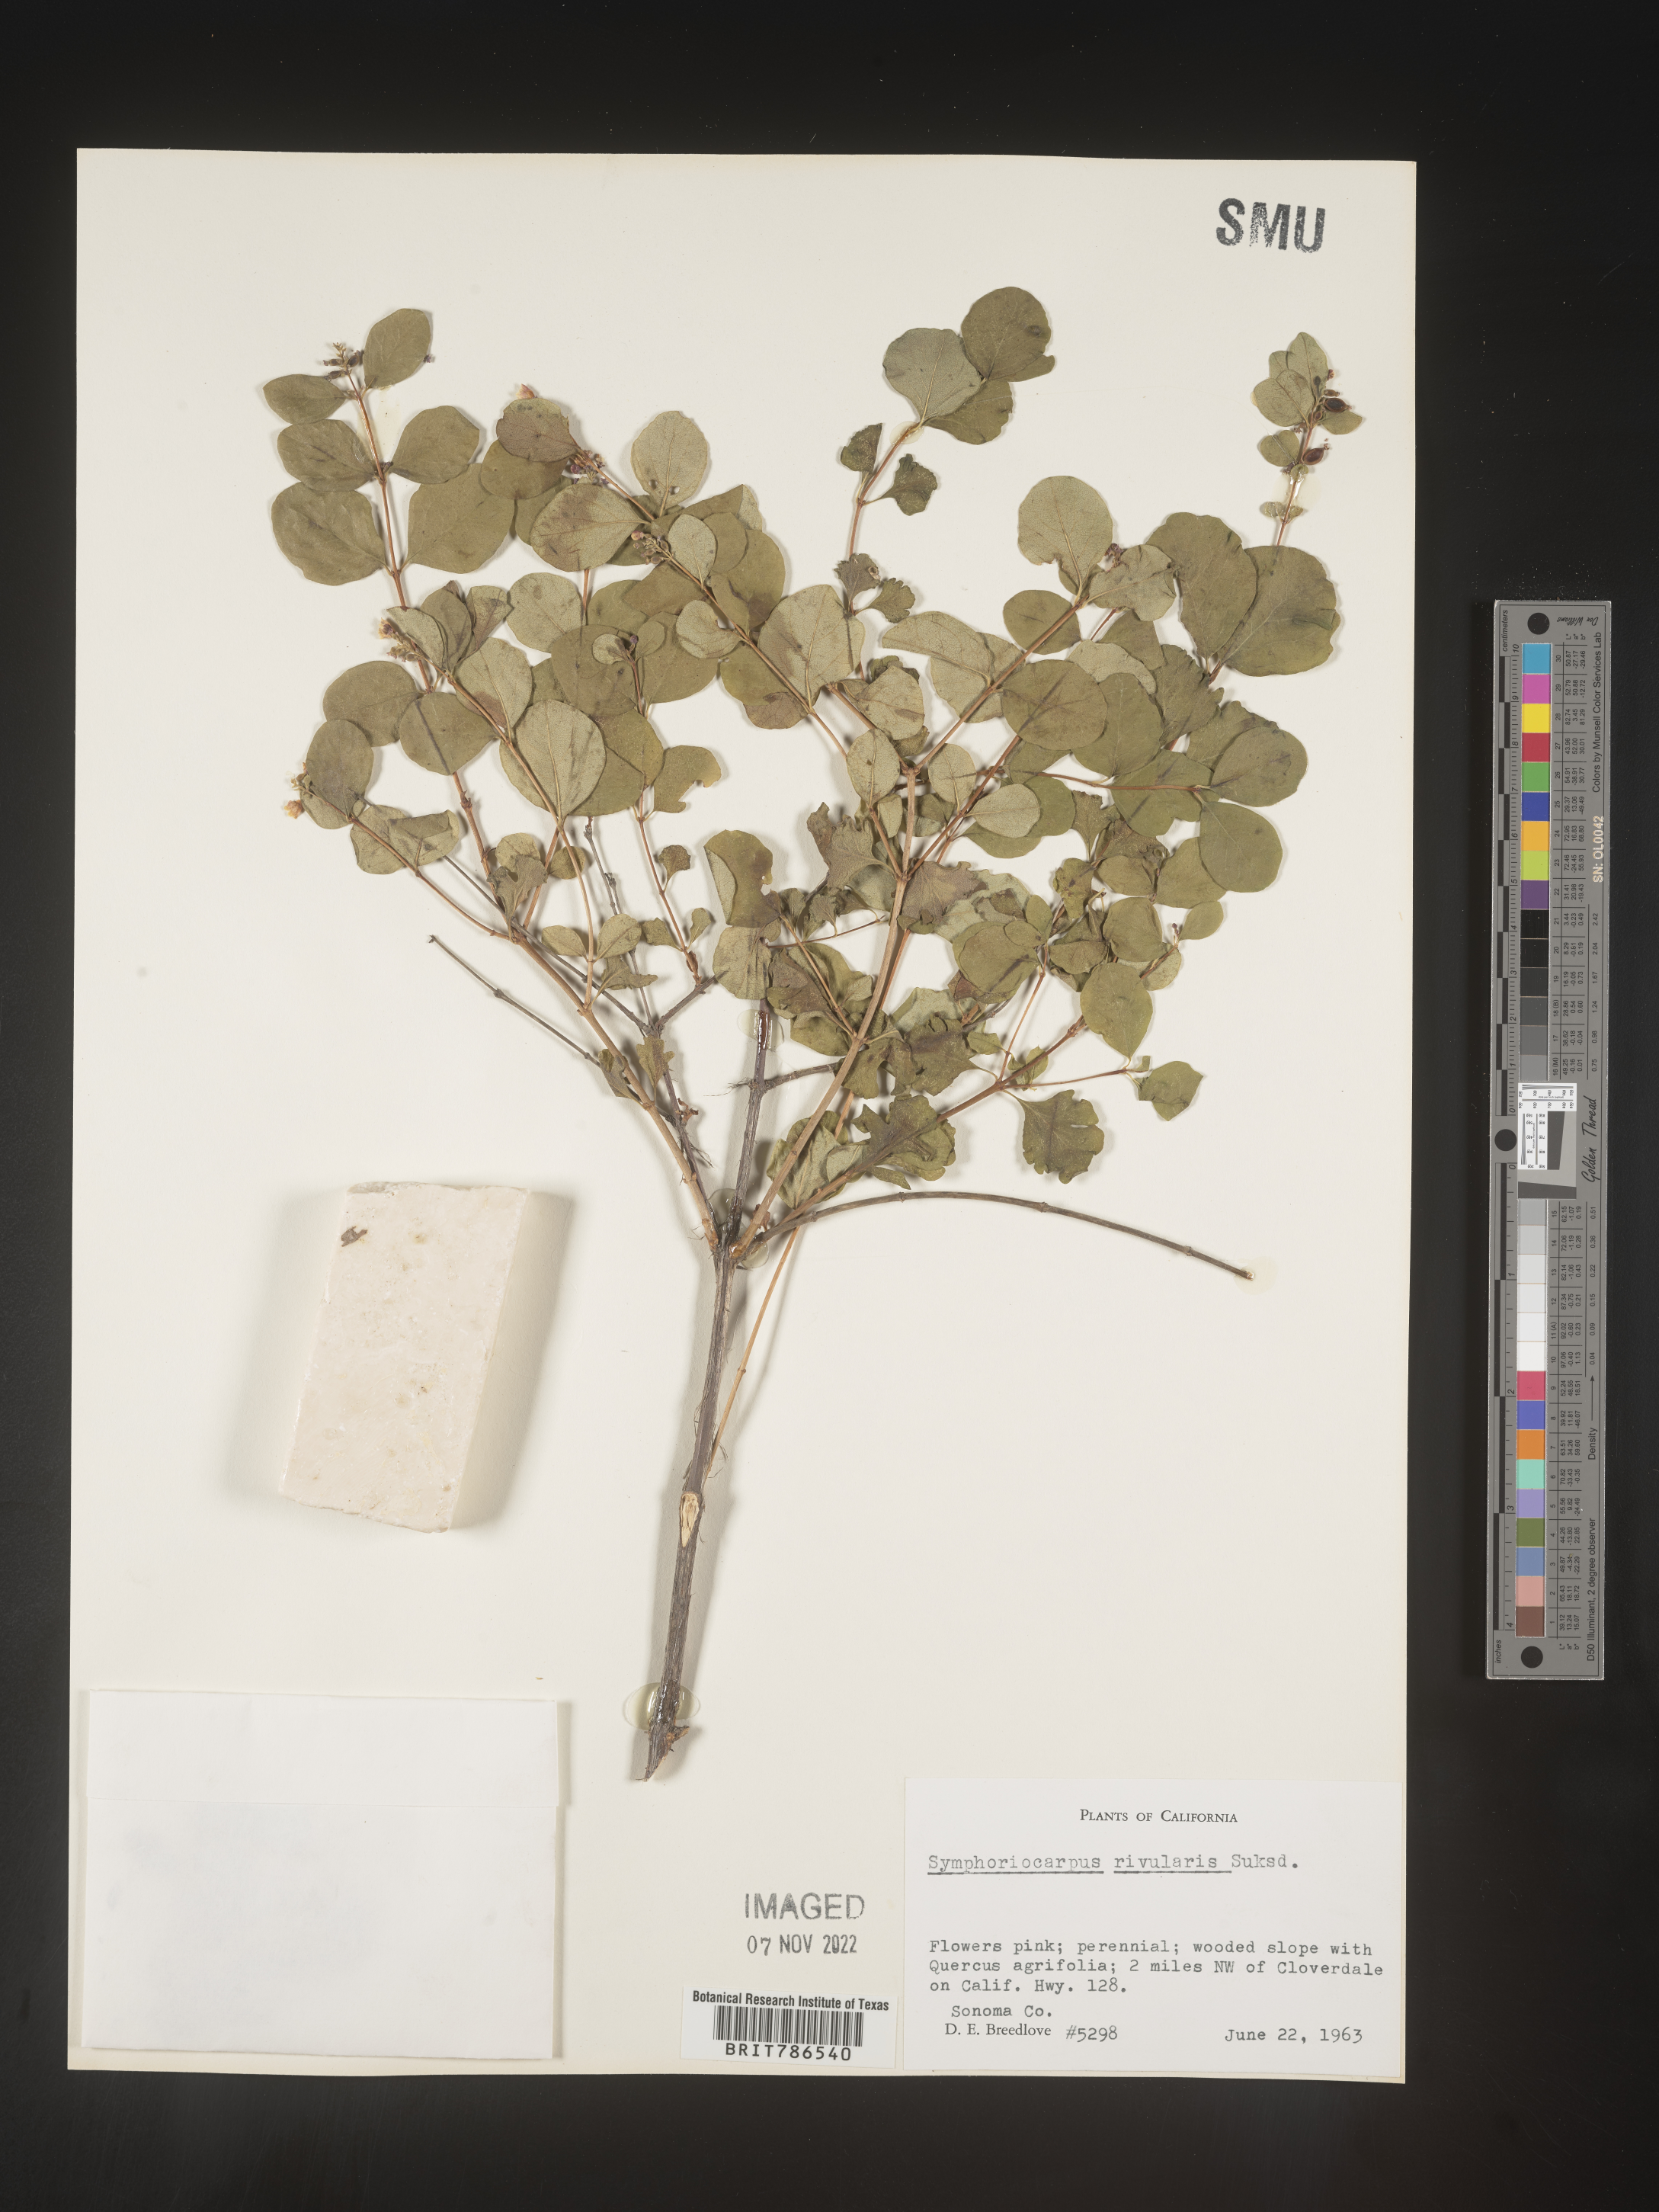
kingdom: Plantae
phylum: Tracheophyta
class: Magnoliopsida
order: Dipsacales
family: Caprifoliaceae
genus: Symphoricarpos
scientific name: Symphoricarpos
